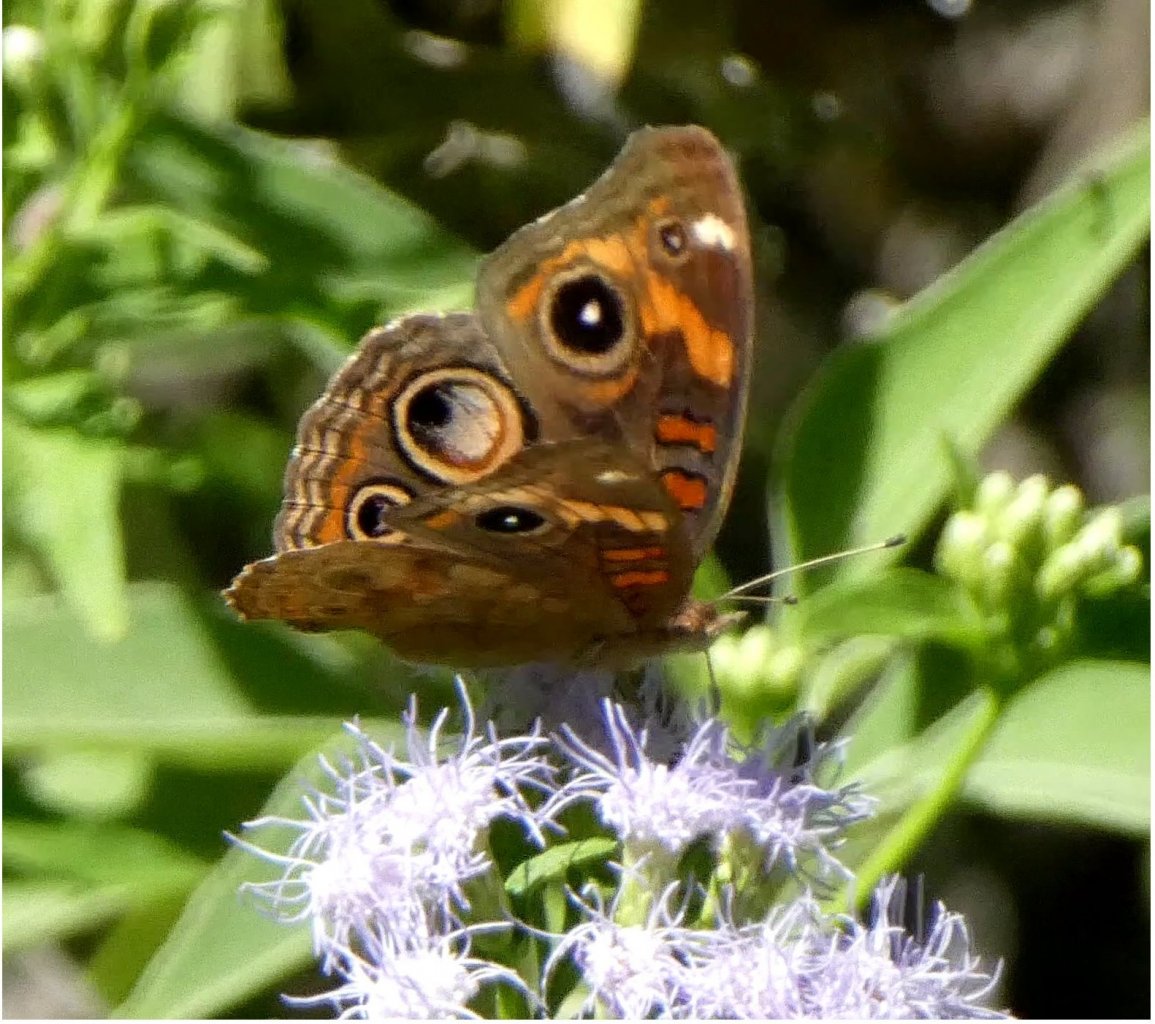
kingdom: Animalia
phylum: Arthropoda
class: Insecta
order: Lepidoptera
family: Nymphalidae
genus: Junonia
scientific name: Junonia lavinia
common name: Tropical Buckeye
